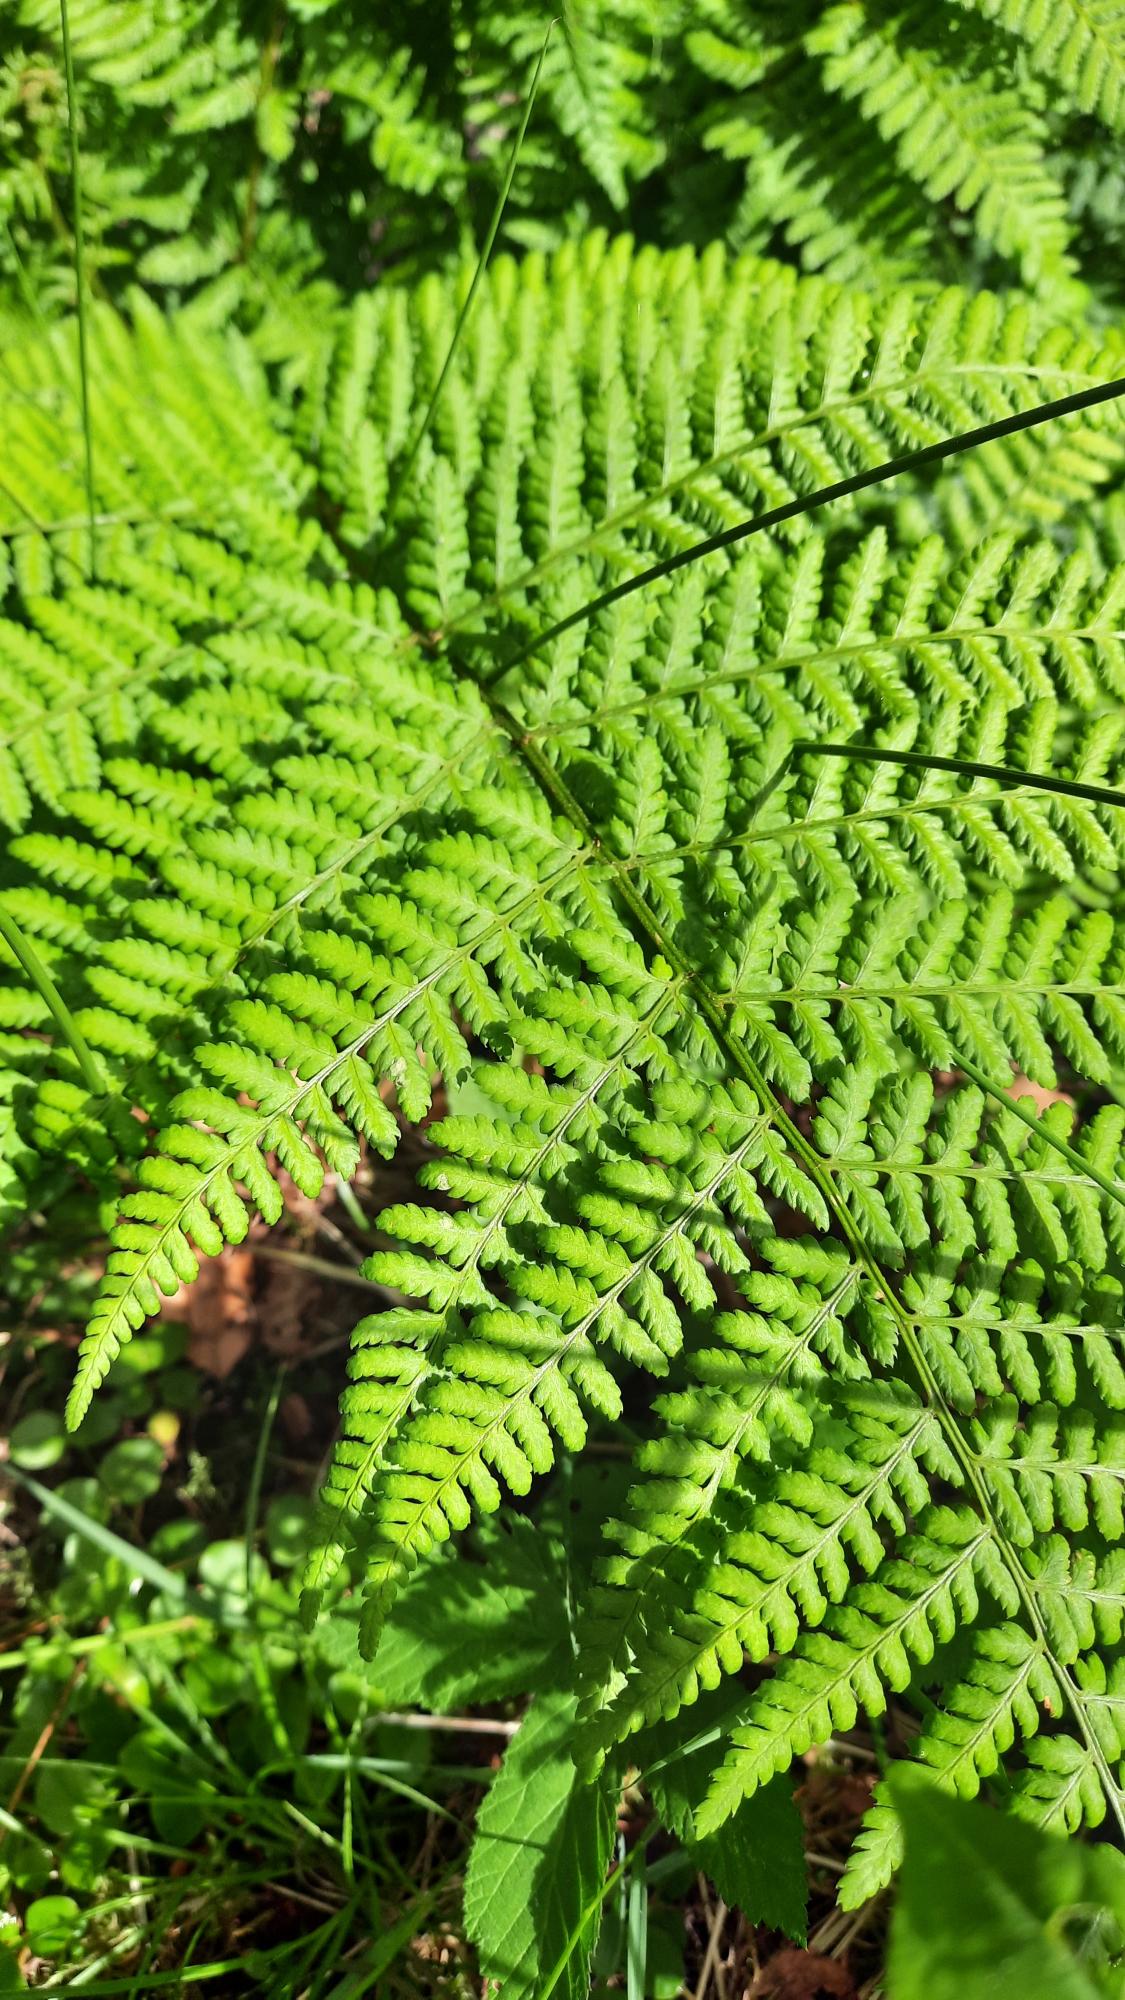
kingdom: Plantae
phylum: Tracheophyta
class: Polypodiopsida
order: Polypodiales
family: Athyriaceae
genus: Athyrium
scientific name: Athyrium filix-femina
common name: Fjerbregne
